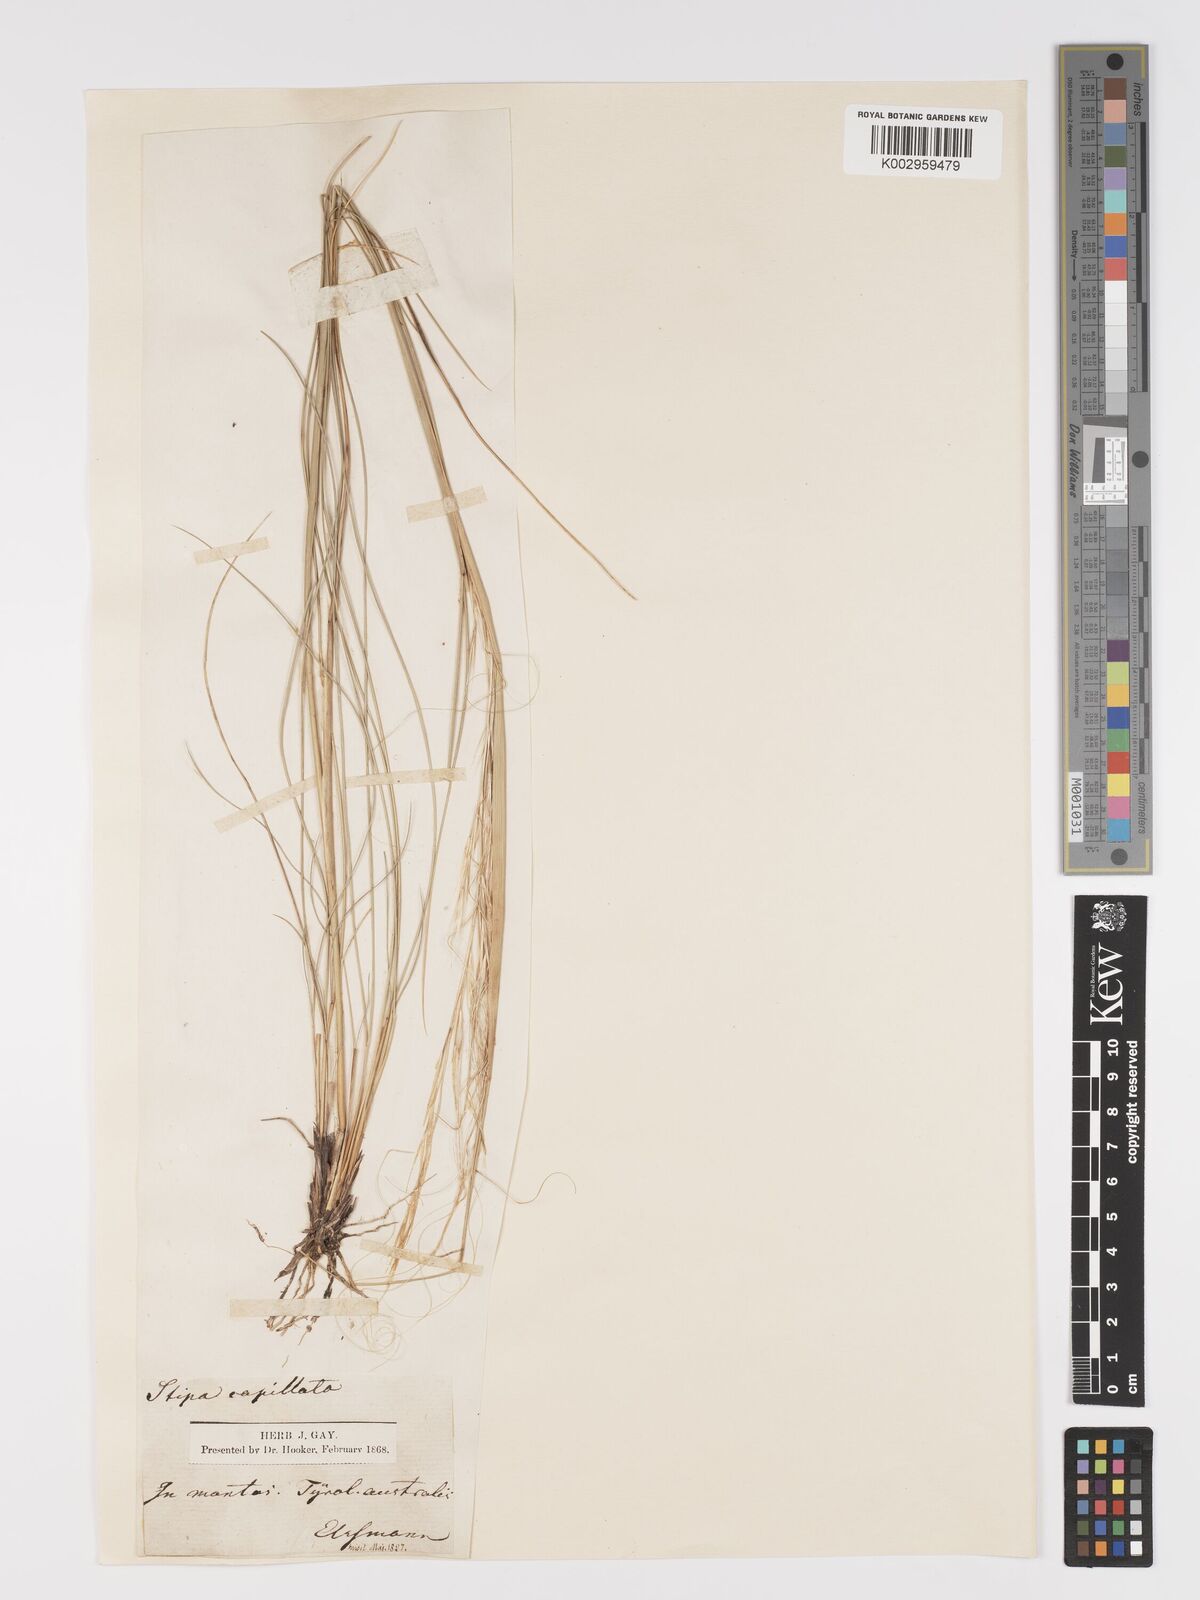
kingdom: Plantae
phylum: Tracheophyta
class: Liliopsida
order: Poales
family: Poaceae
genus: Stipa
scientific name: Stipa capillata
